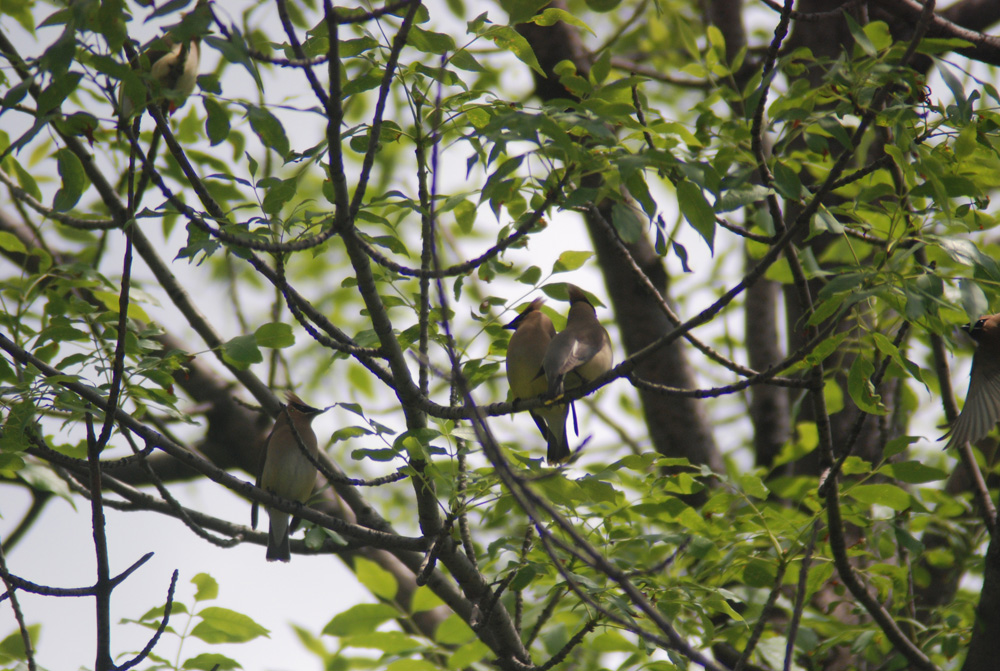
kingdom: Animalia
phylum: Chordata
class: Aves
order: Passeriformes
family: Bombycillidae
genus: Bombycilla
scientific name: Bombycilla cedrorum
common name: Cedar waxwing
